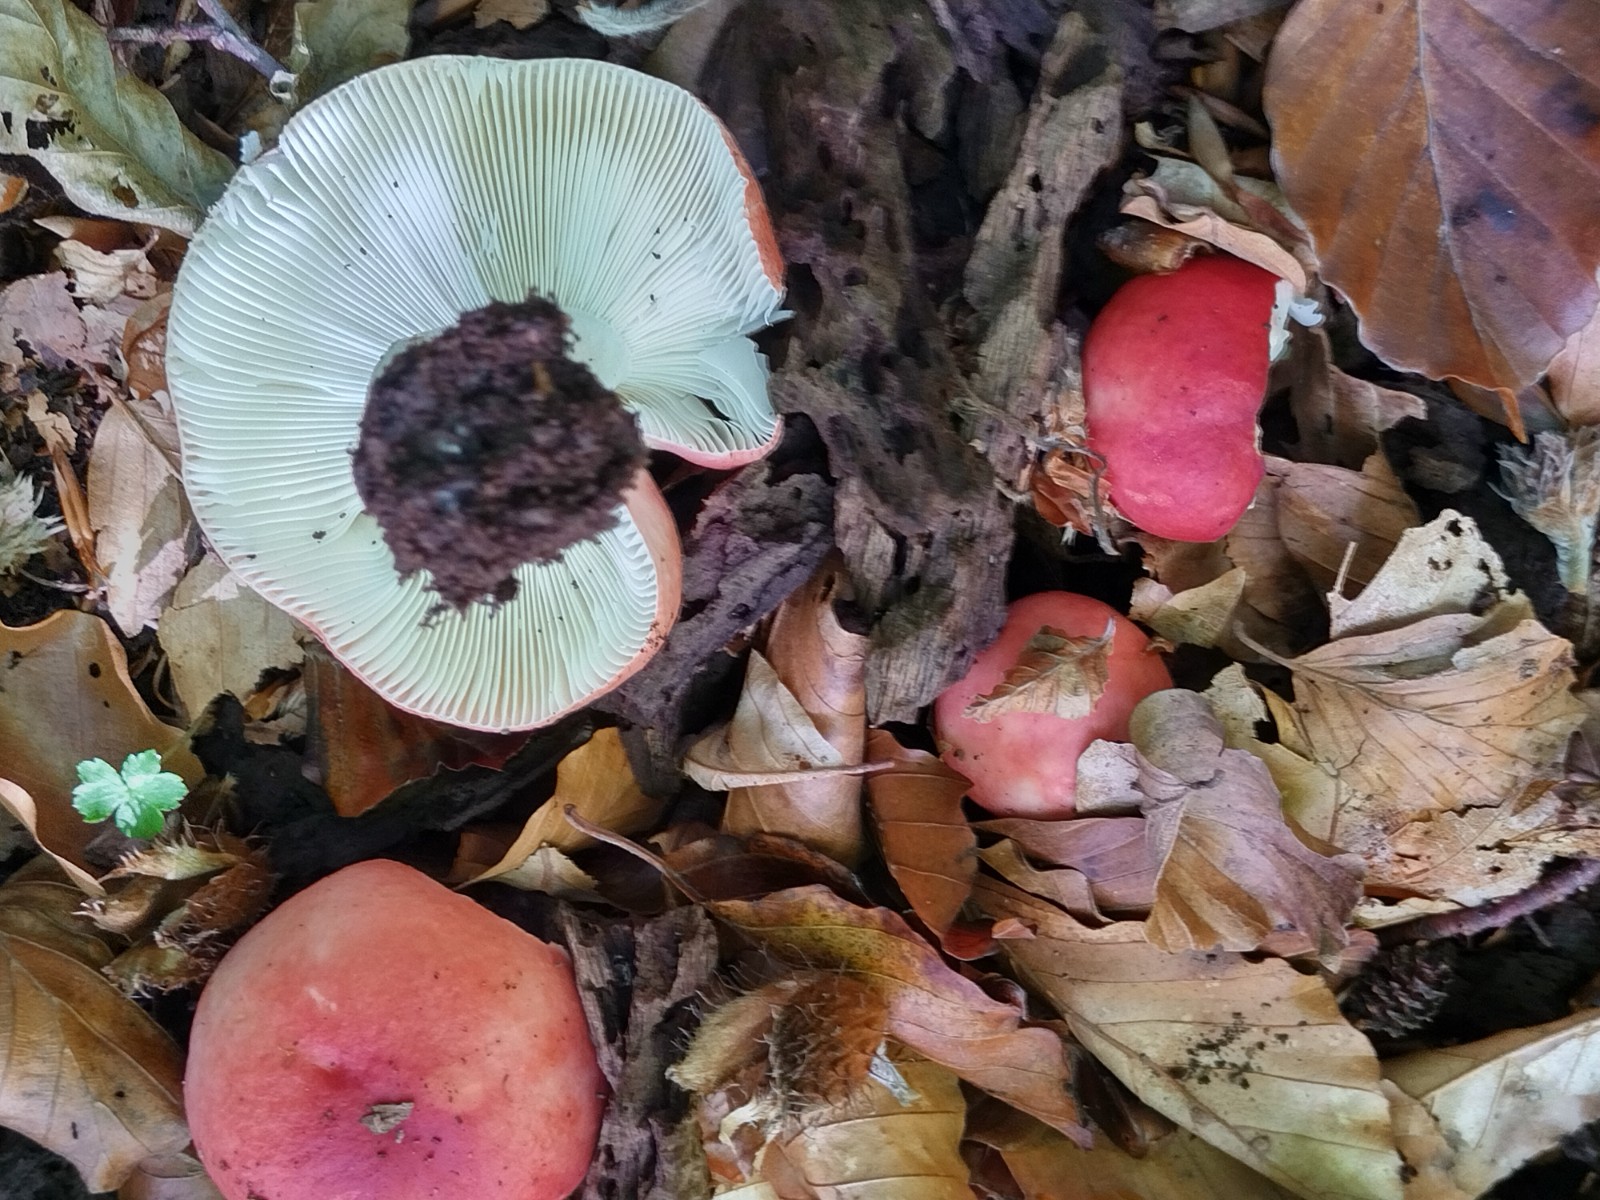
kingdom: Fungi
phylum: Basidiomycota
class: Agaricomycetes
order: Russulales
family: Russulaceae
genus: Russula
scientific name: Russula nobilis
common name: lille gift-skørhat
